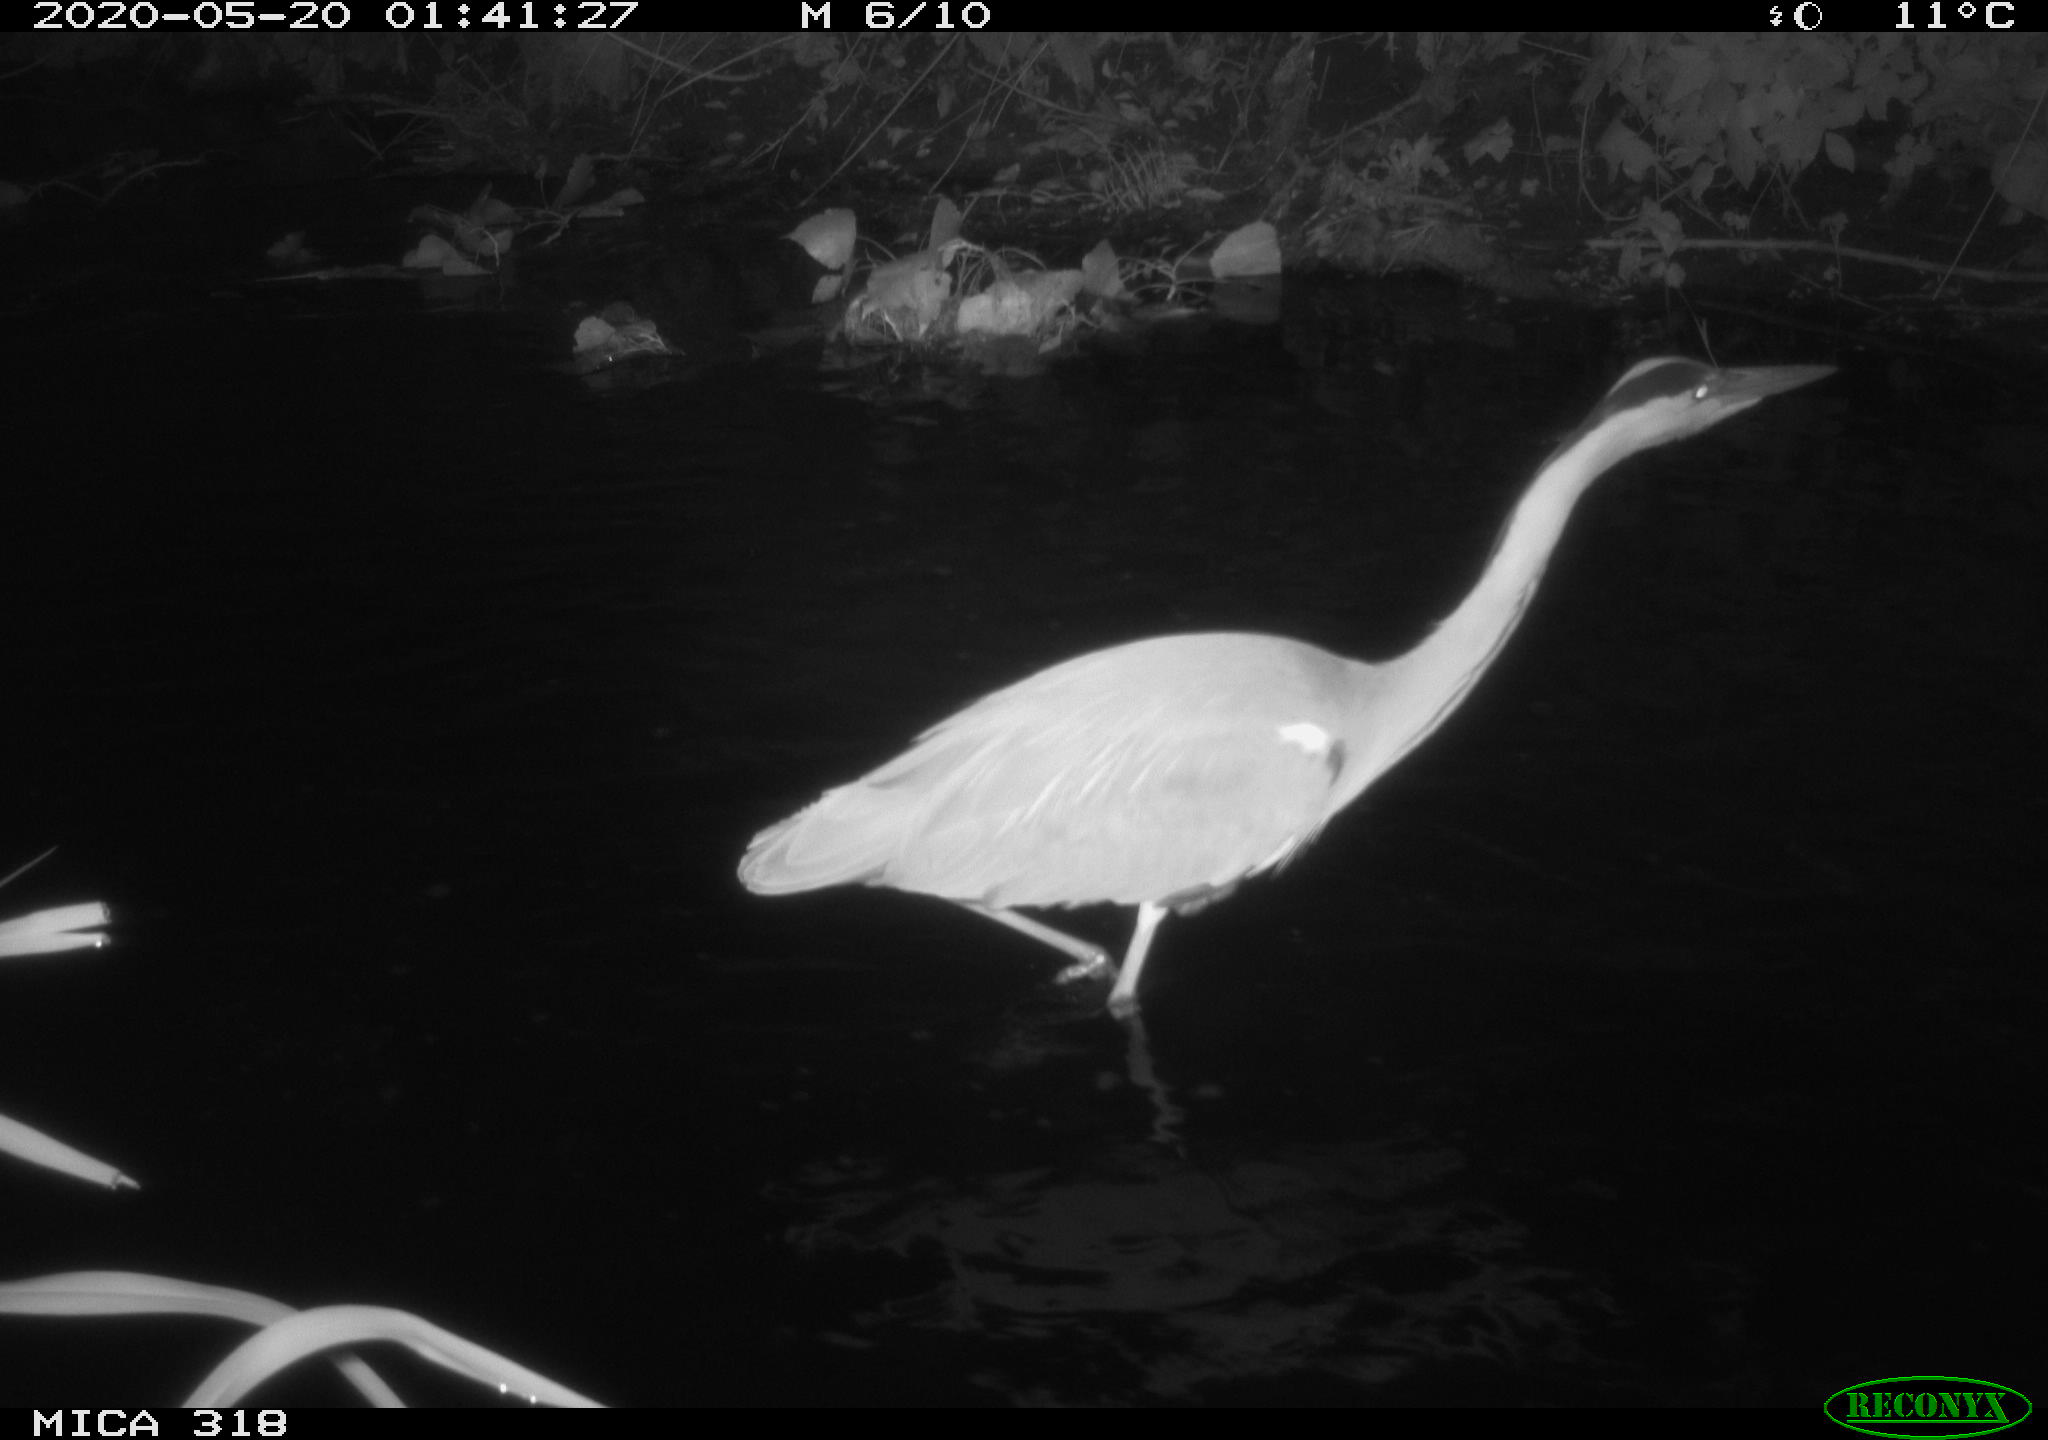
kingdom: Animalia
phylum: Chordata
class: Aves
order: Pelecaniformes
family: Ardeidae
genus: Ardea
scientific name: Ardea cinerea
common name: Grey heron
